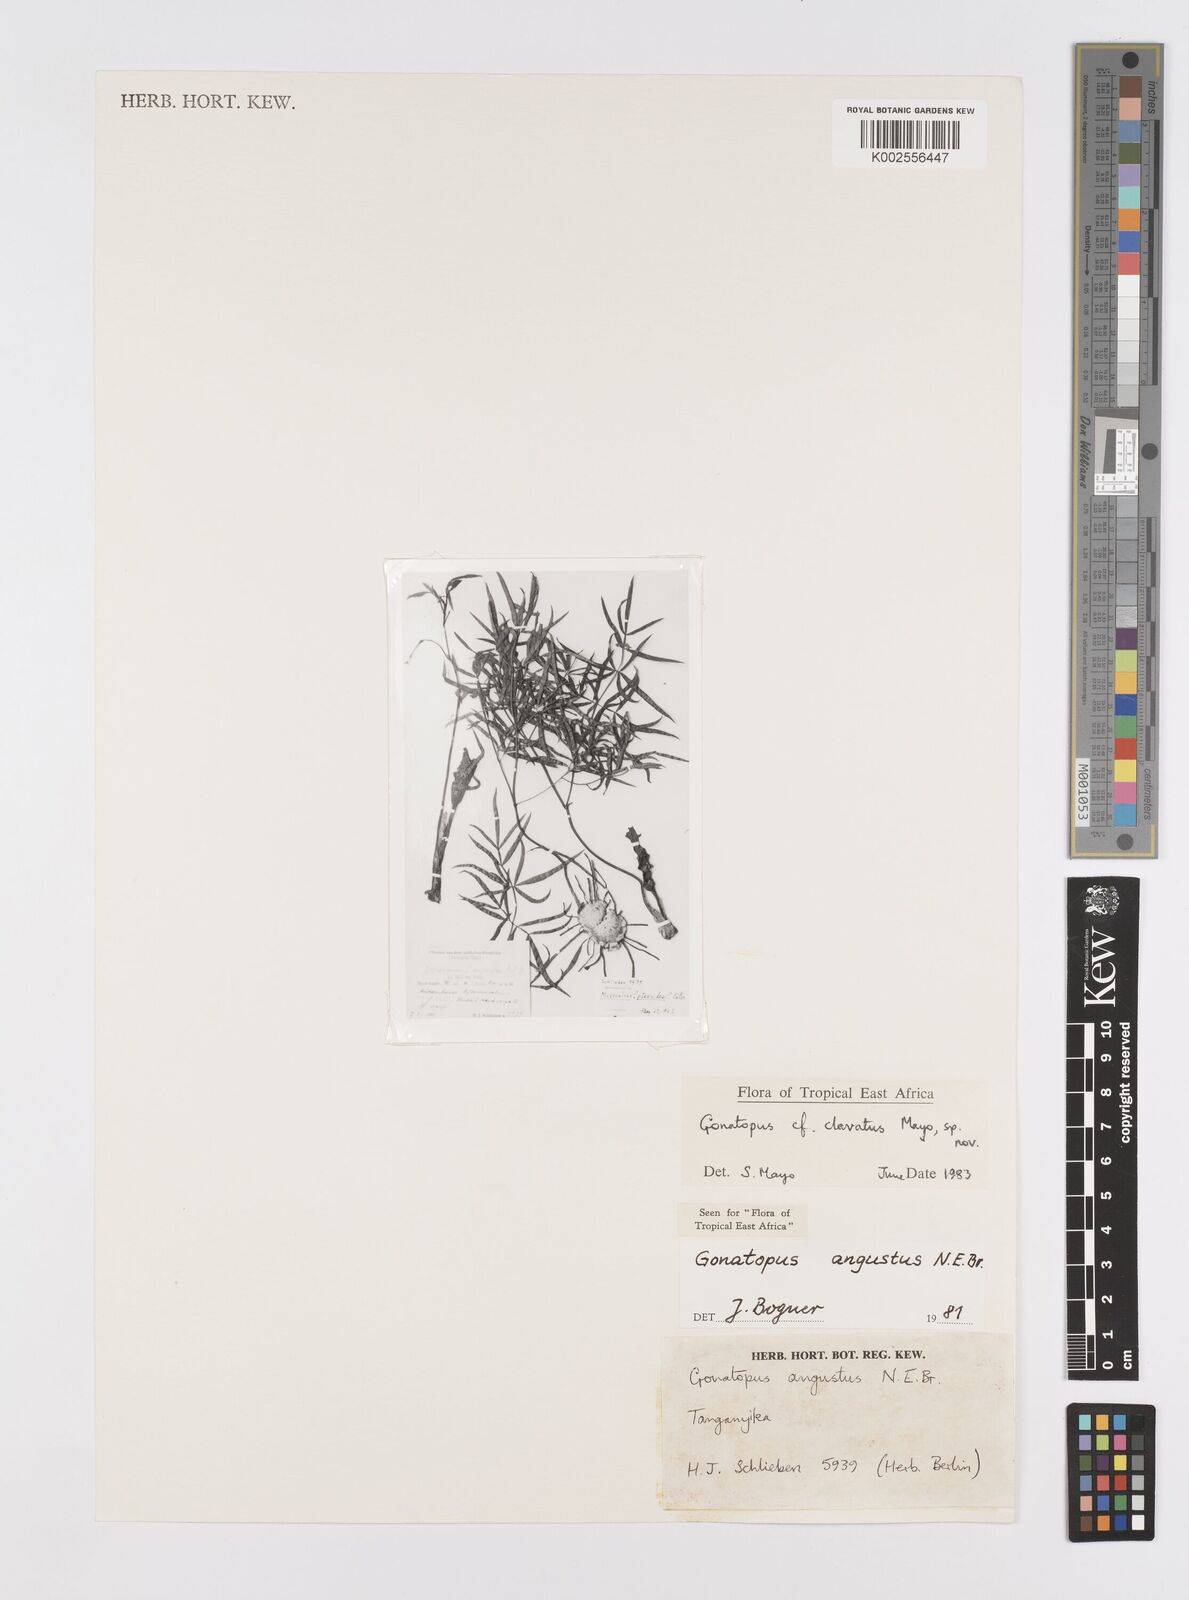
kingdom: Plantae
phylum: Tracheophyta
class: Liliopsida
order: Alismatales
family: Araceae
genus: Gonatopus
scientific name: Gonatopus clavatus
